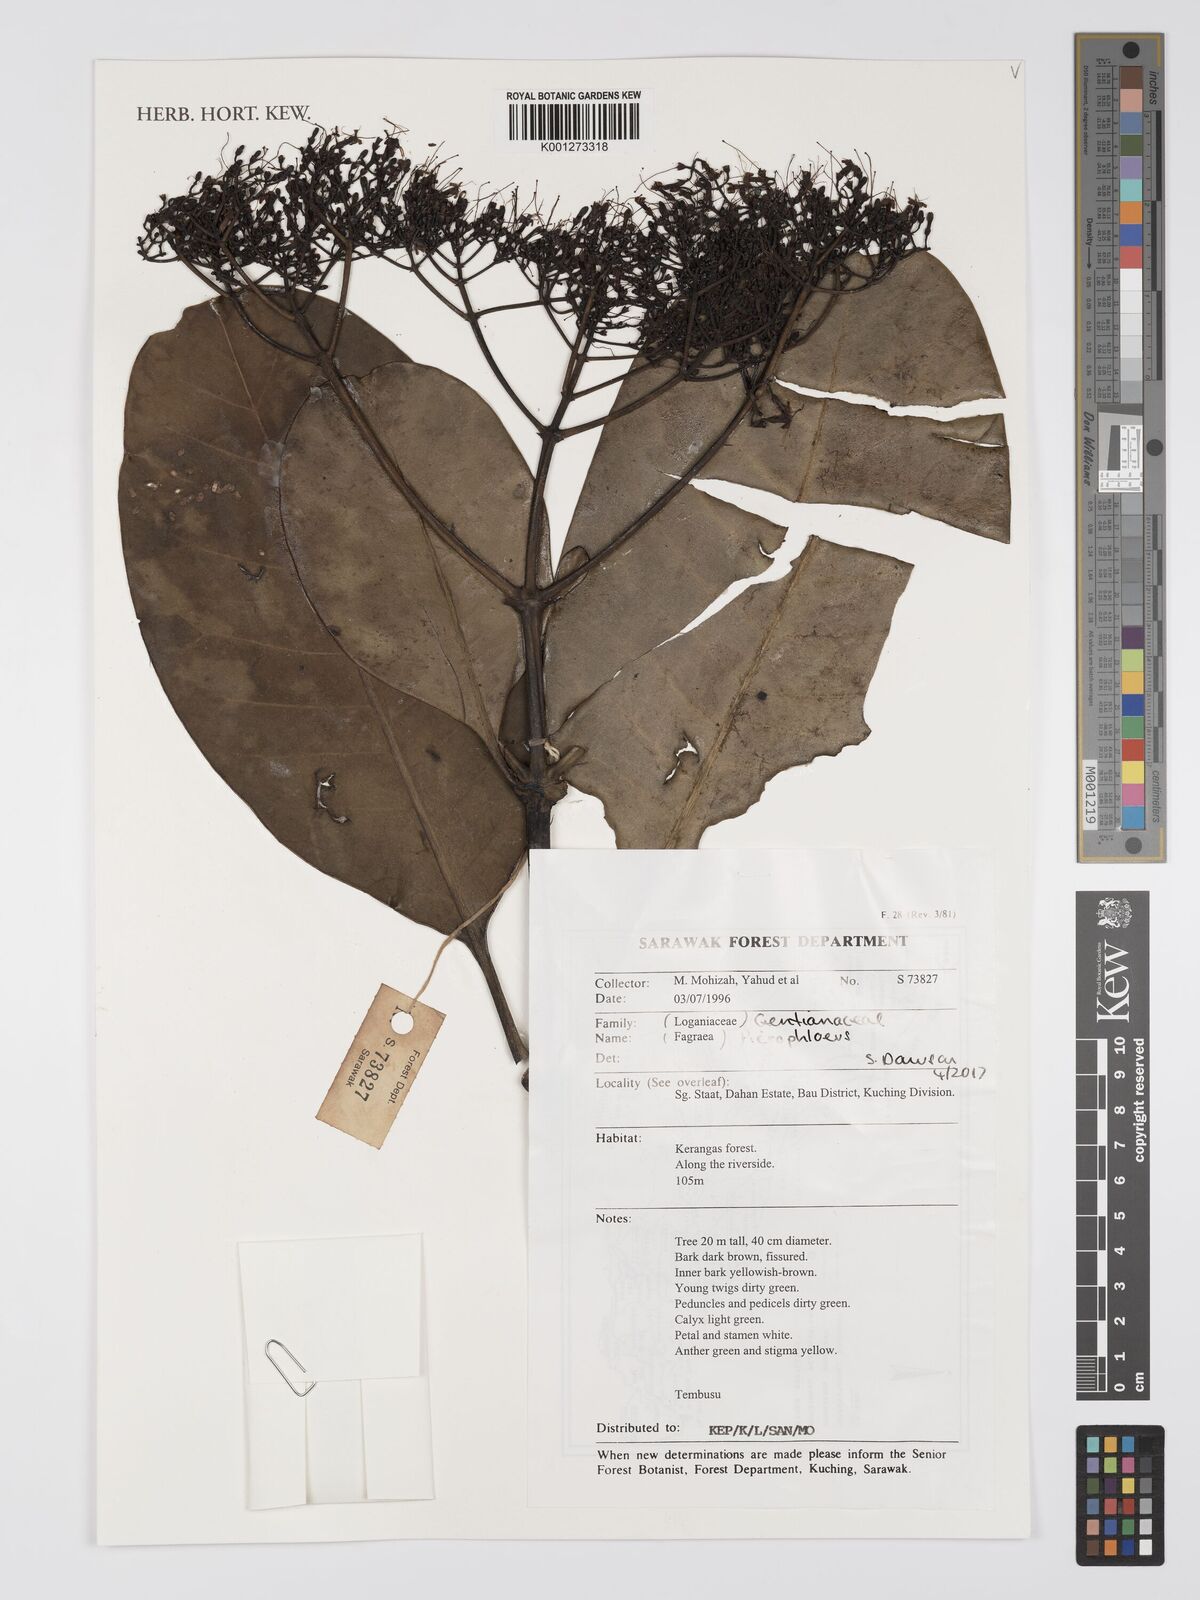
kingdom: Plantae
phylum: Tracheophyta
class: Magnoliopsida
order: Gentianales
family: Gentianaceae
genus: Picrophloeus
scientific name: Picrophloeus
